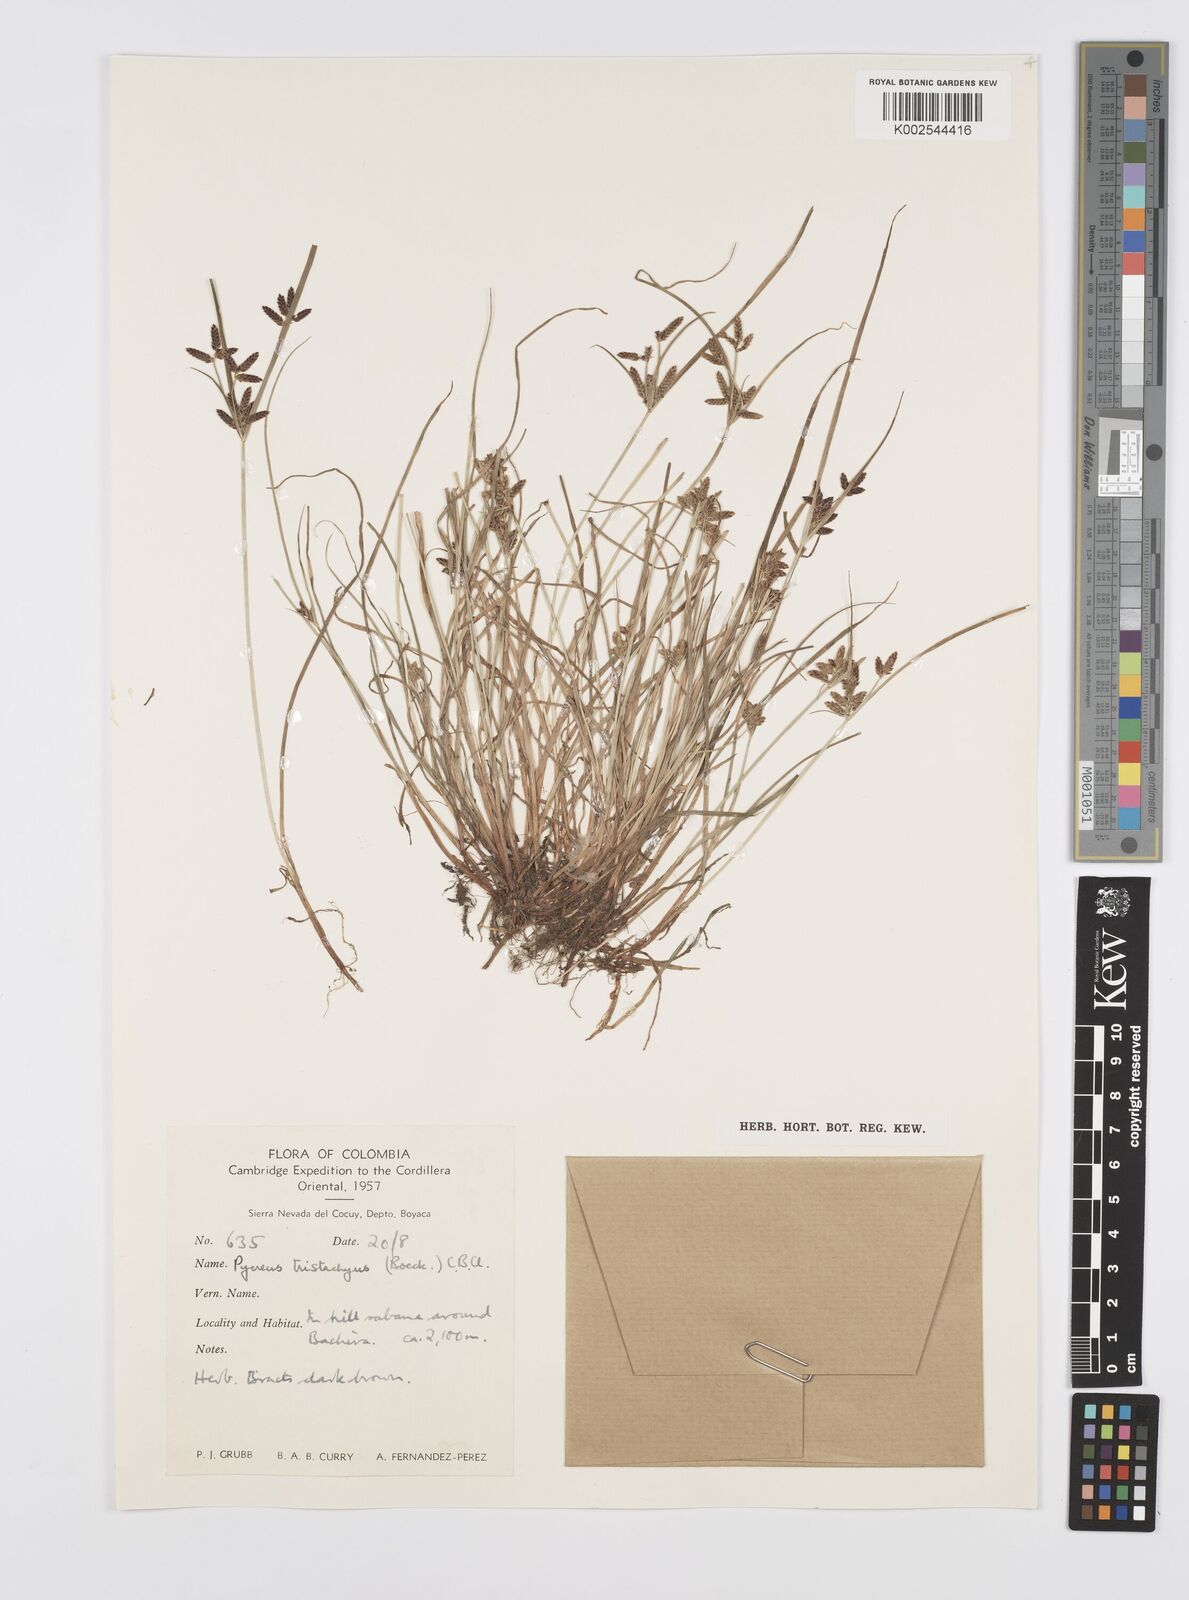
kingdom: Plantae
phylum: Tracheophyta
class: Liliopsida
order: Poales
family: Cyperaceae
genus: Cyperus
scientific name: Cyperus flavescens
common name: Yellow galingale
